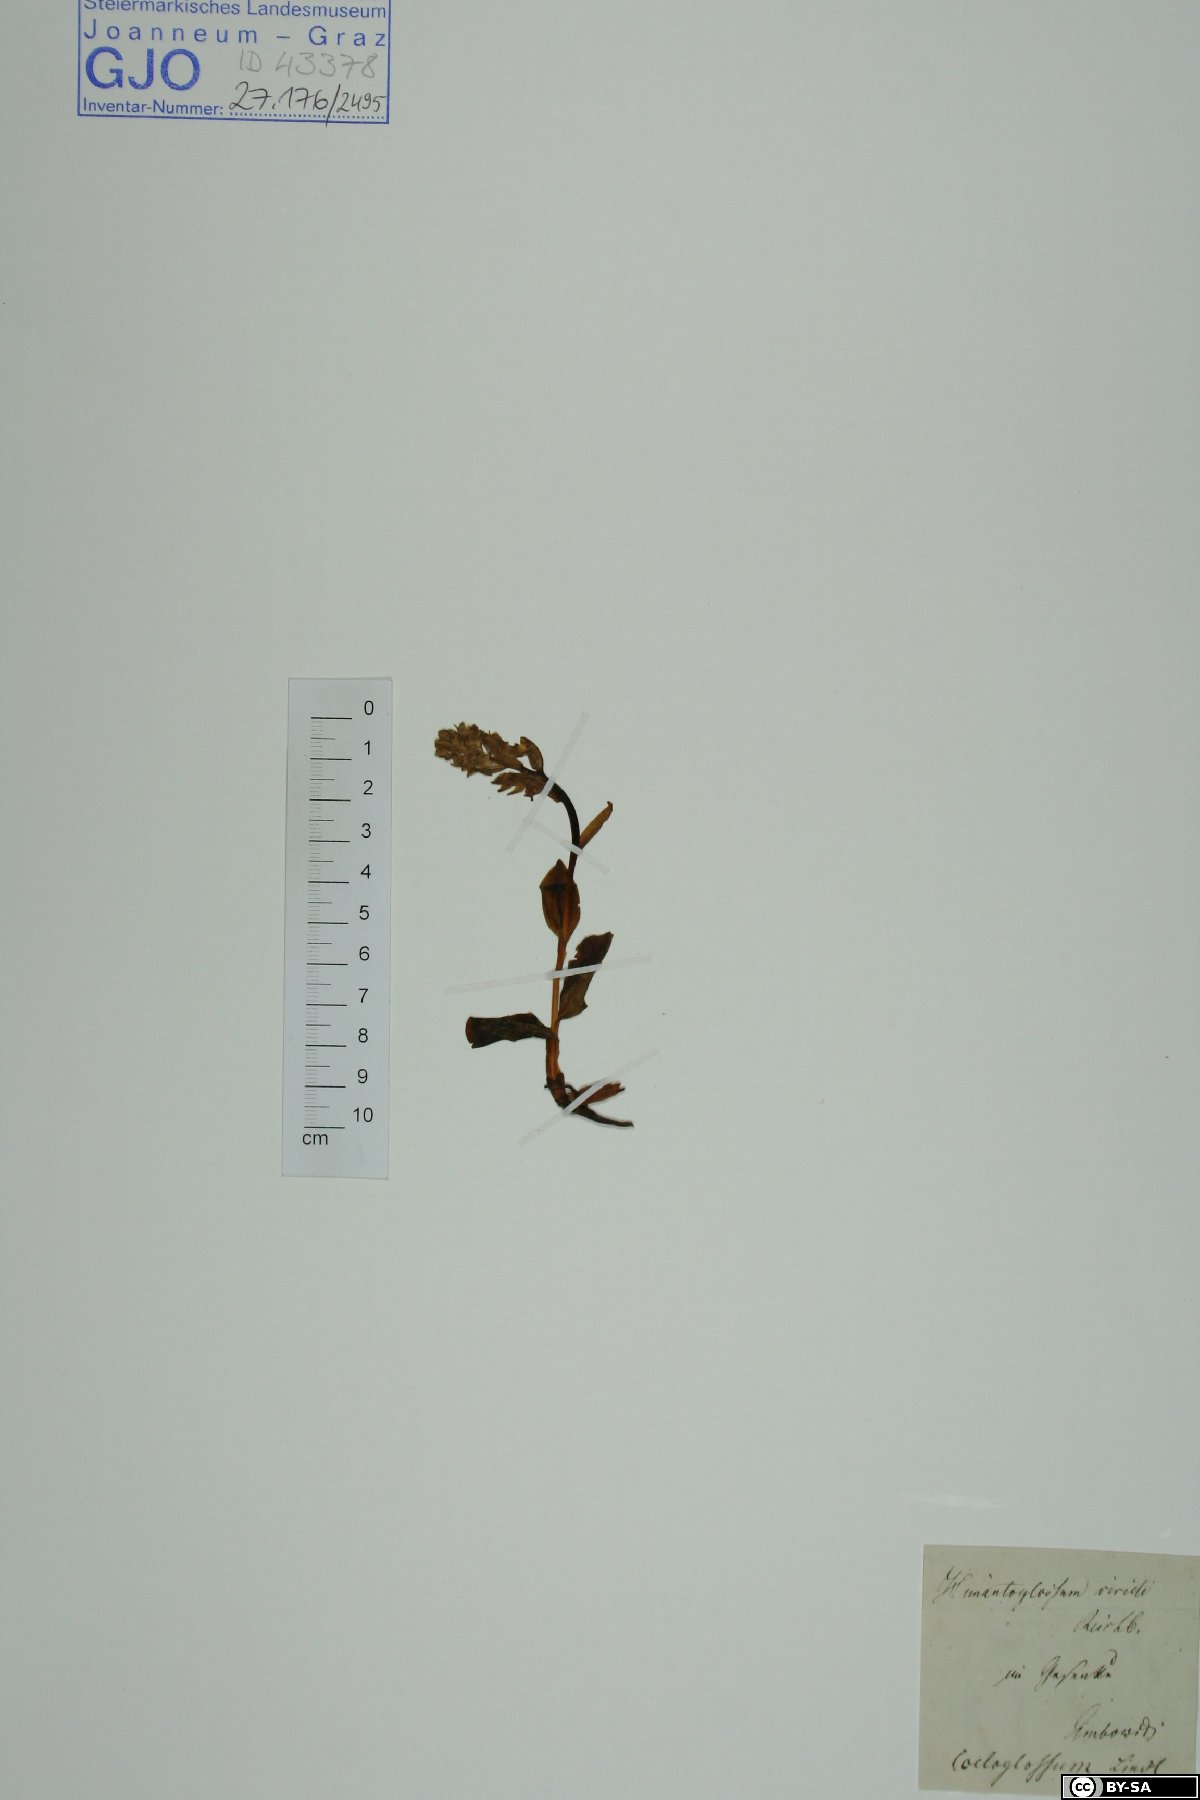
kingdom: Plantae
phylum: Tracheophyta
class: Liliopsida
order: Asparagales
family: Orchidaceae
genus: Dactylorhiza
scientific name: Dactylorhiza viridis
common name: Longbract frog orchid
